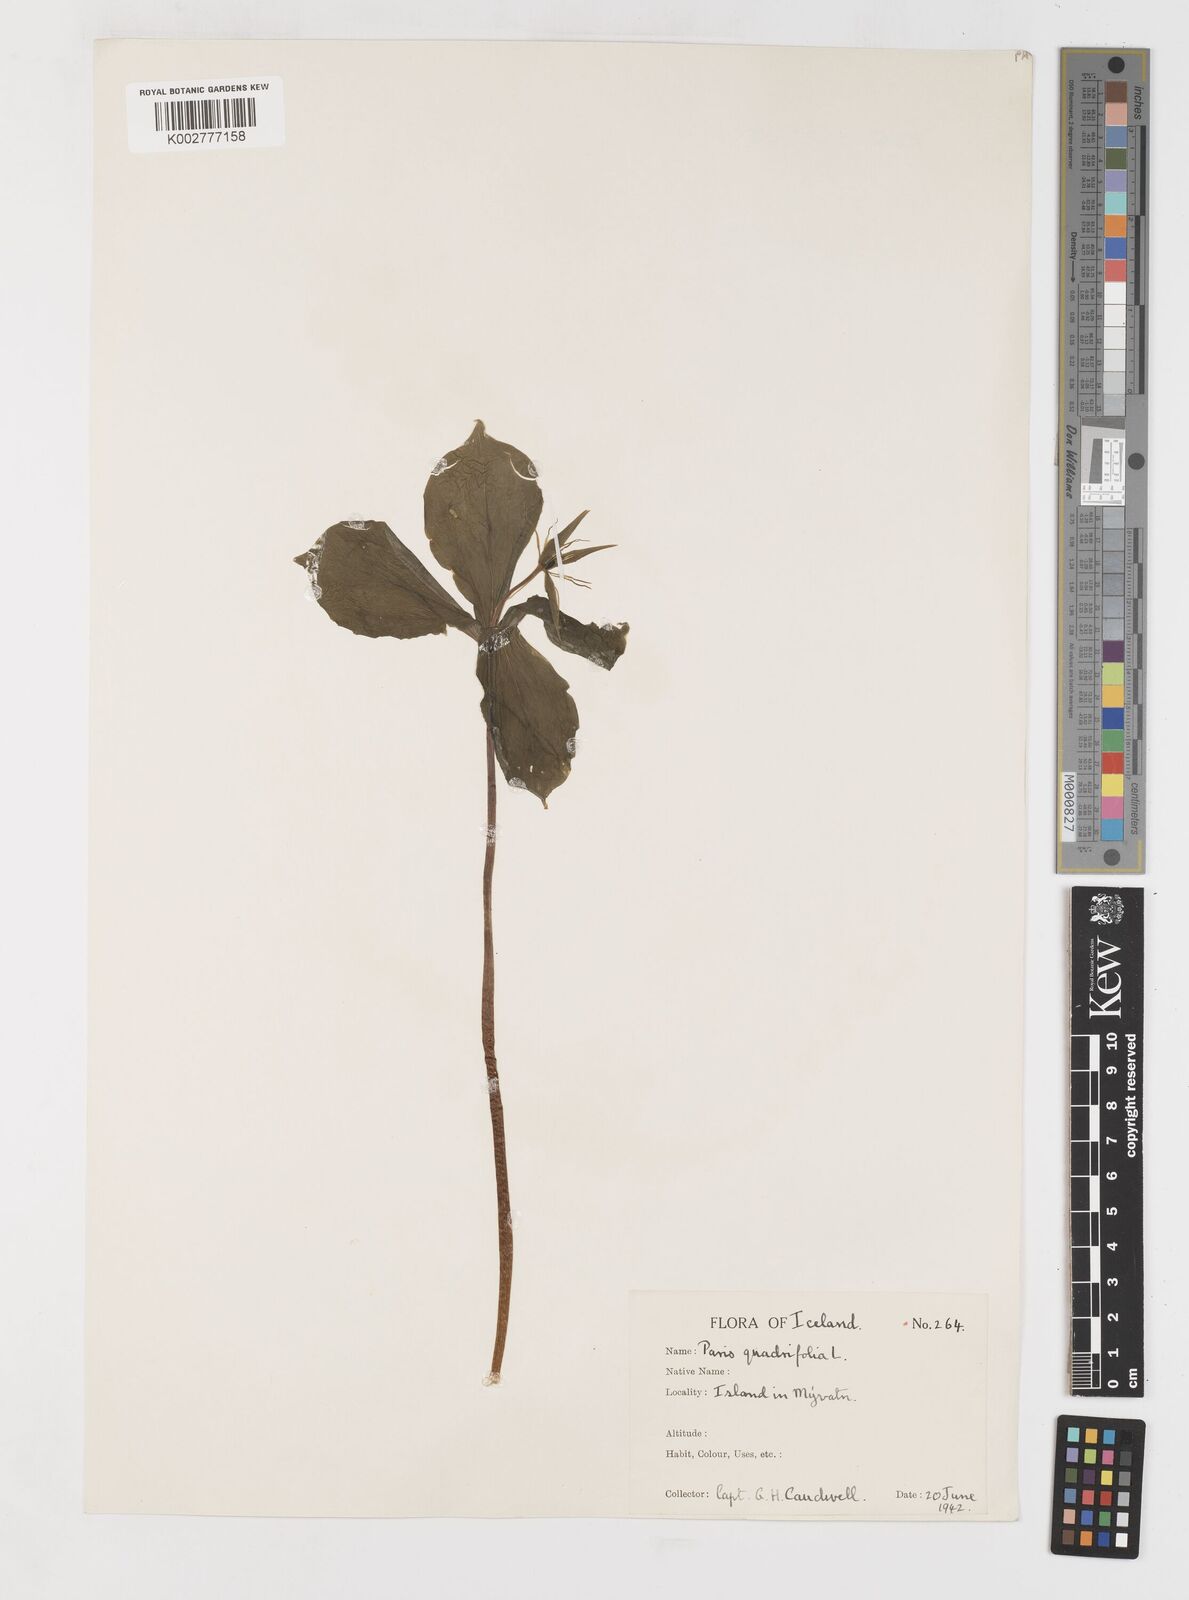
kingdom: Plantae
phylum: Tracheophyta
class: Liliopsida
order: Liliales
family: Melanthiaceae
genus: Paris
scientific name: Paris quadrifolia
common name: Herb-paris
